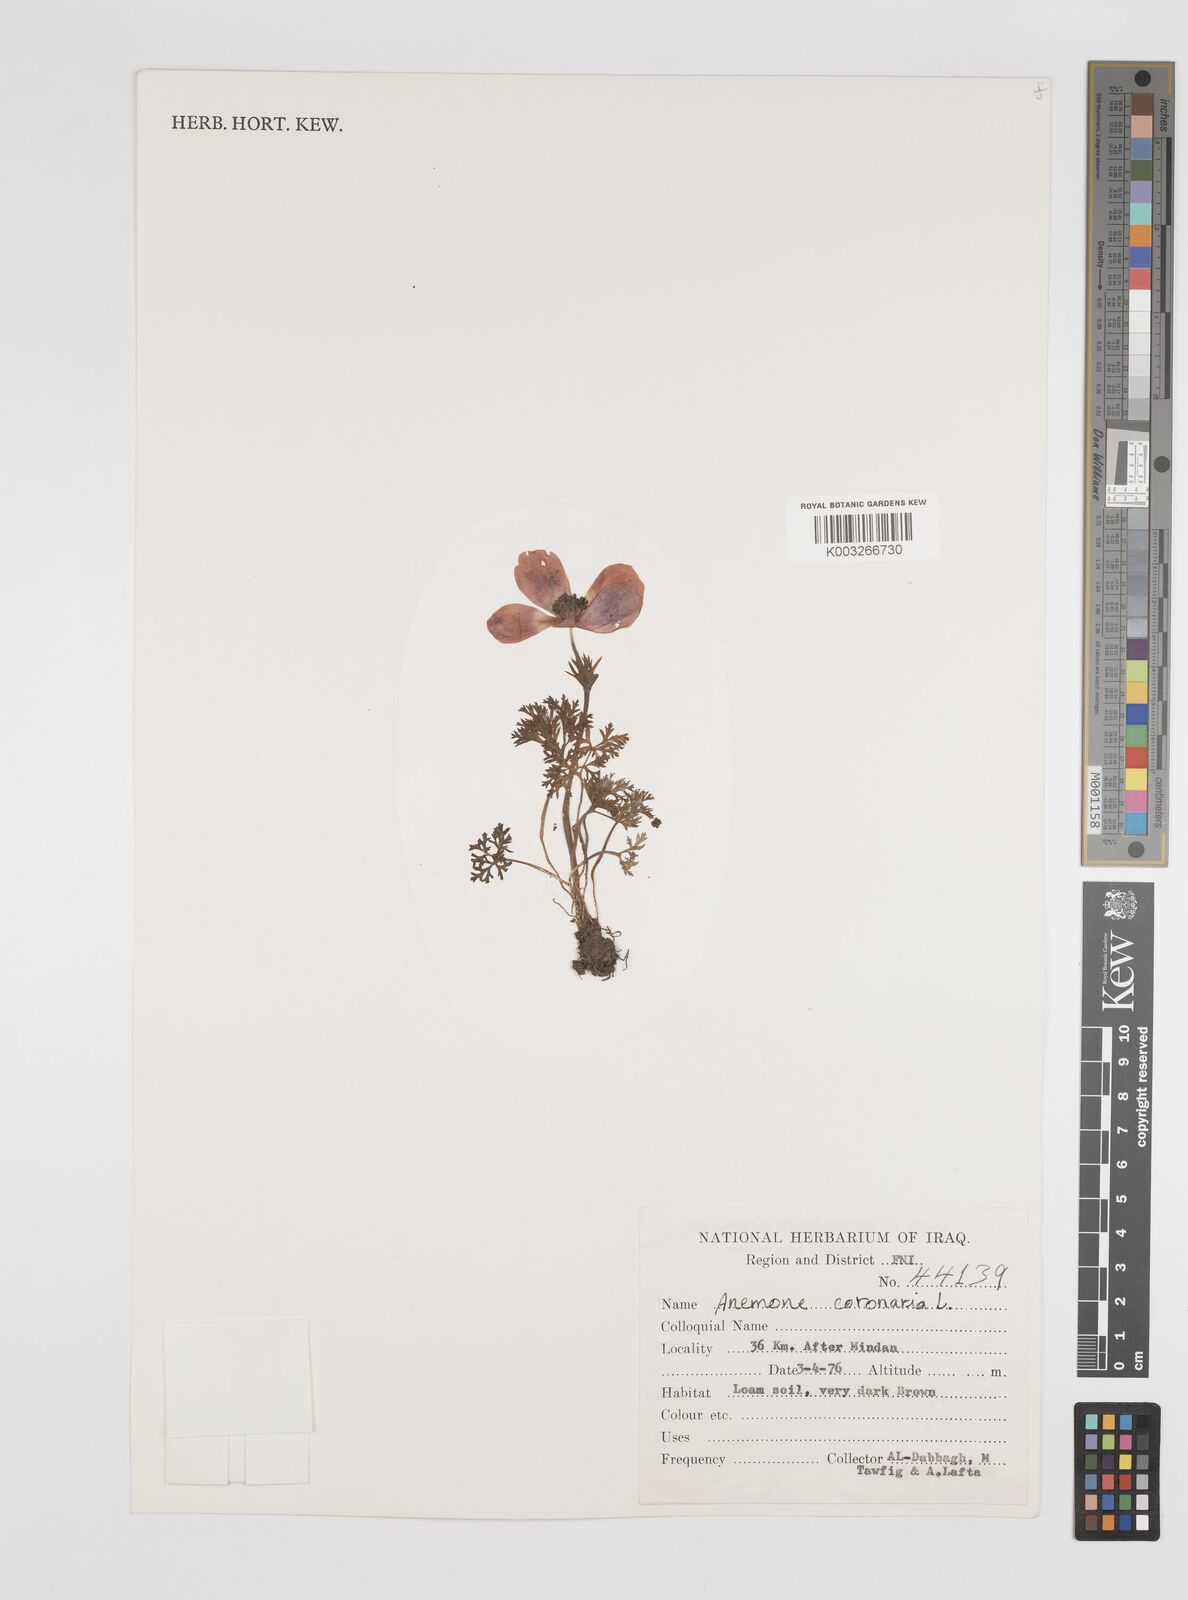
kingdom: Plantae
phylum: Tracheophyta
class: Magnoliopsida
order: Ranunculales
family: Ranunculaceae
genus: Anemone
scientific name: Anemone coronaria
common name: Poppy anemone
